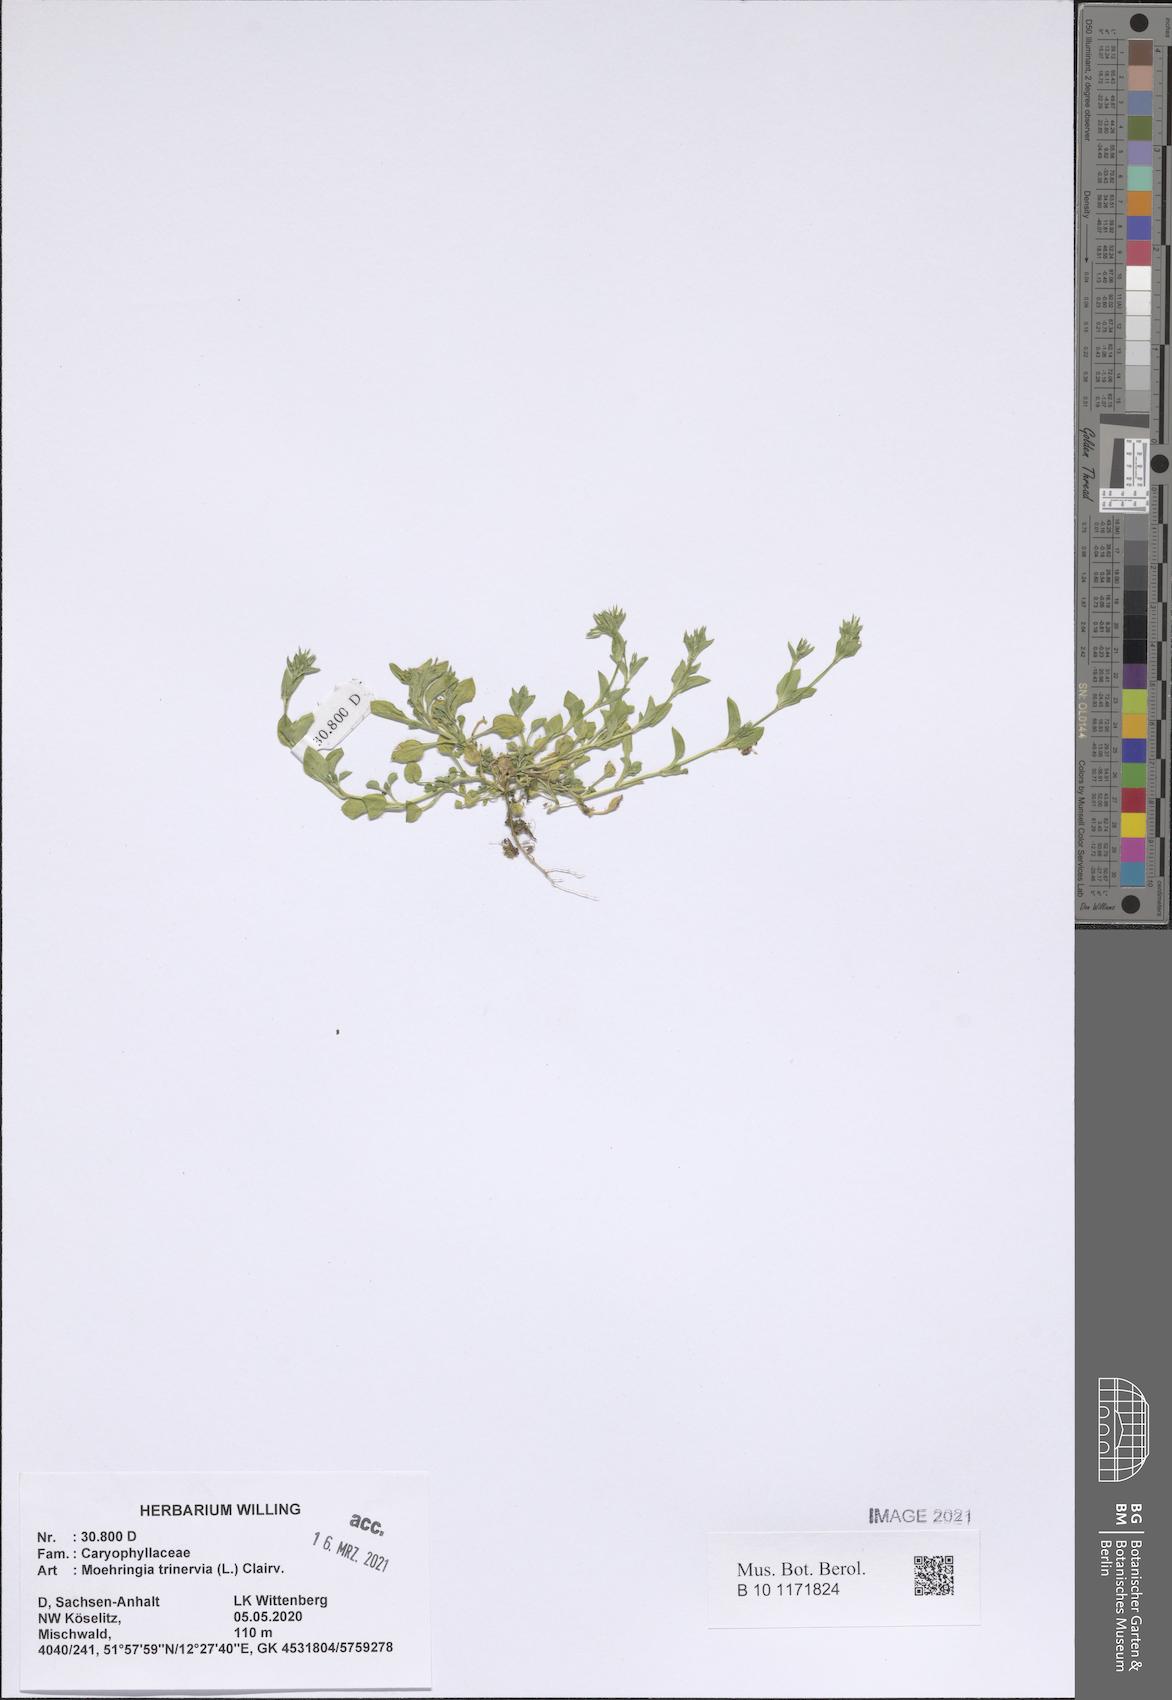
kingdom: Plantae
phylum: Tracheophyta
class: Magnoliopsida
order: Caryophyllales
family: Caryophyllaceae
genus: Moehringia
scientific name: Moehringia trinervia
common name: Three-nerved sandwort
